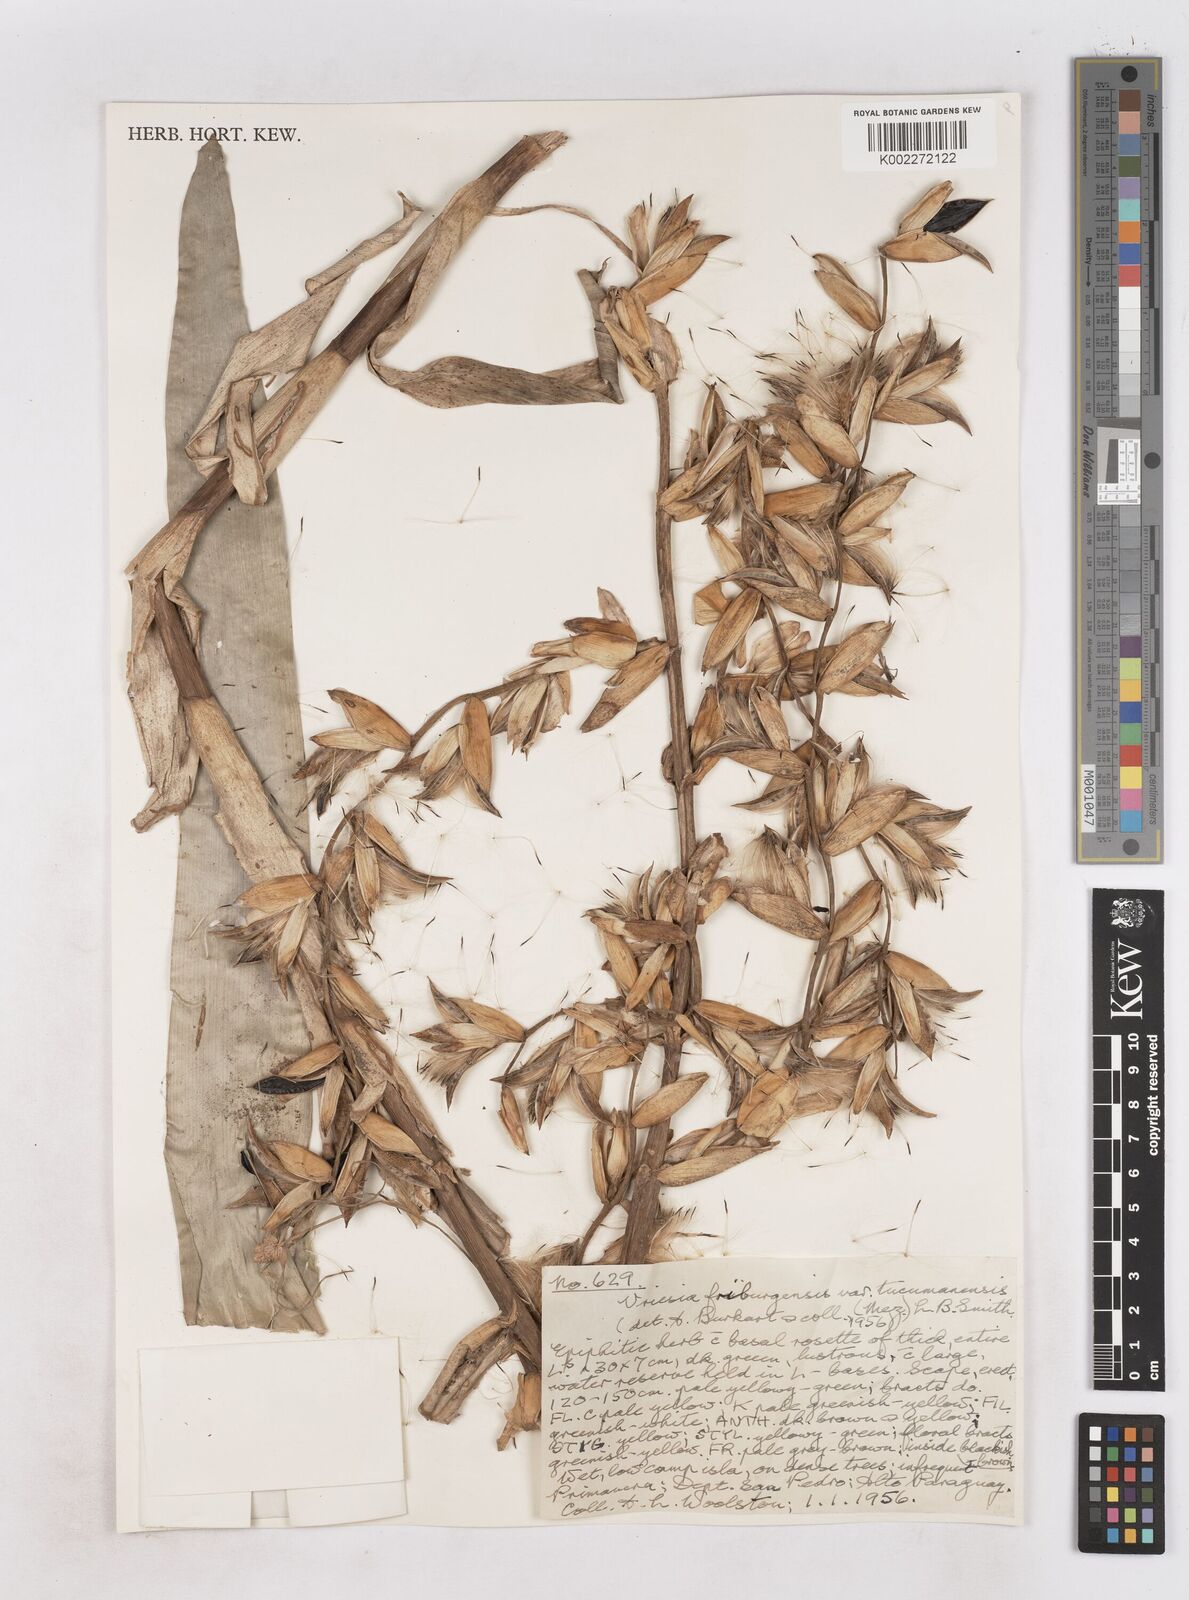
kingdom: Plantae
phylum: Tracheophyta
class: Liliopsida
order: Poales
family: Bromeliaceae
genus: Vriesea
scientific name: Vriesea friburgensis
